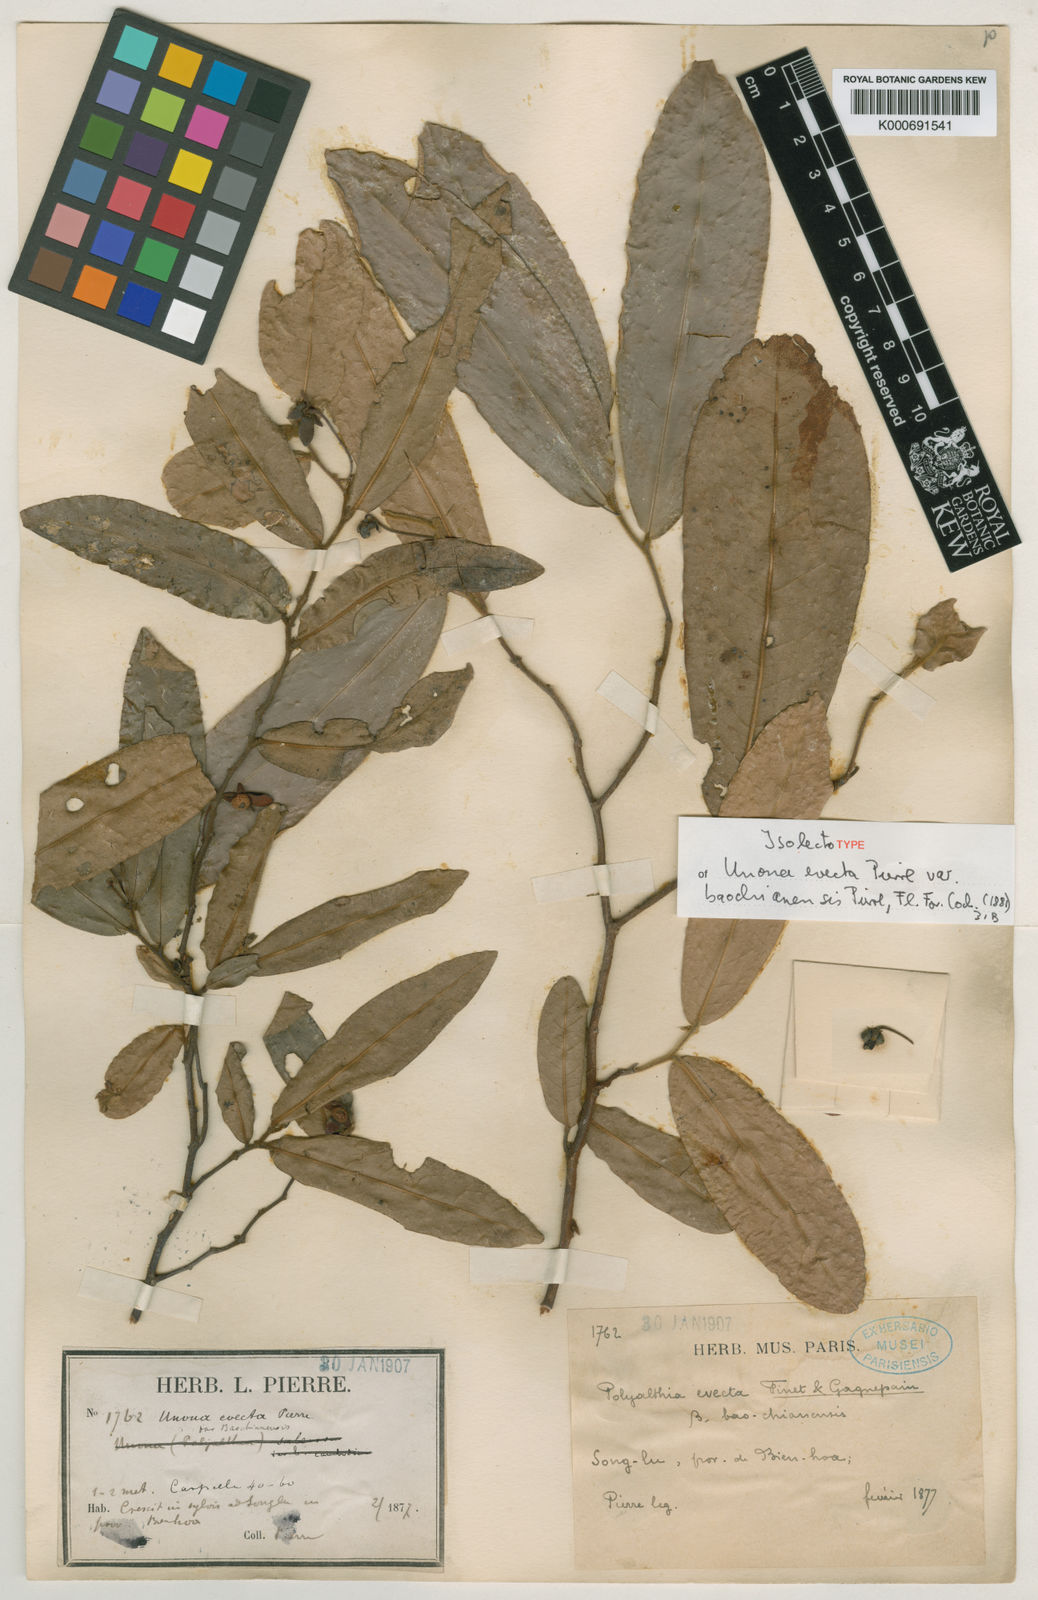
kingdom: Plantae
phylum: Tracheophyta
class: Magnoliopsida
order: Magnoliales
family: Annonaceae
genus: Polyalthia
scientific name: Polyalthia
